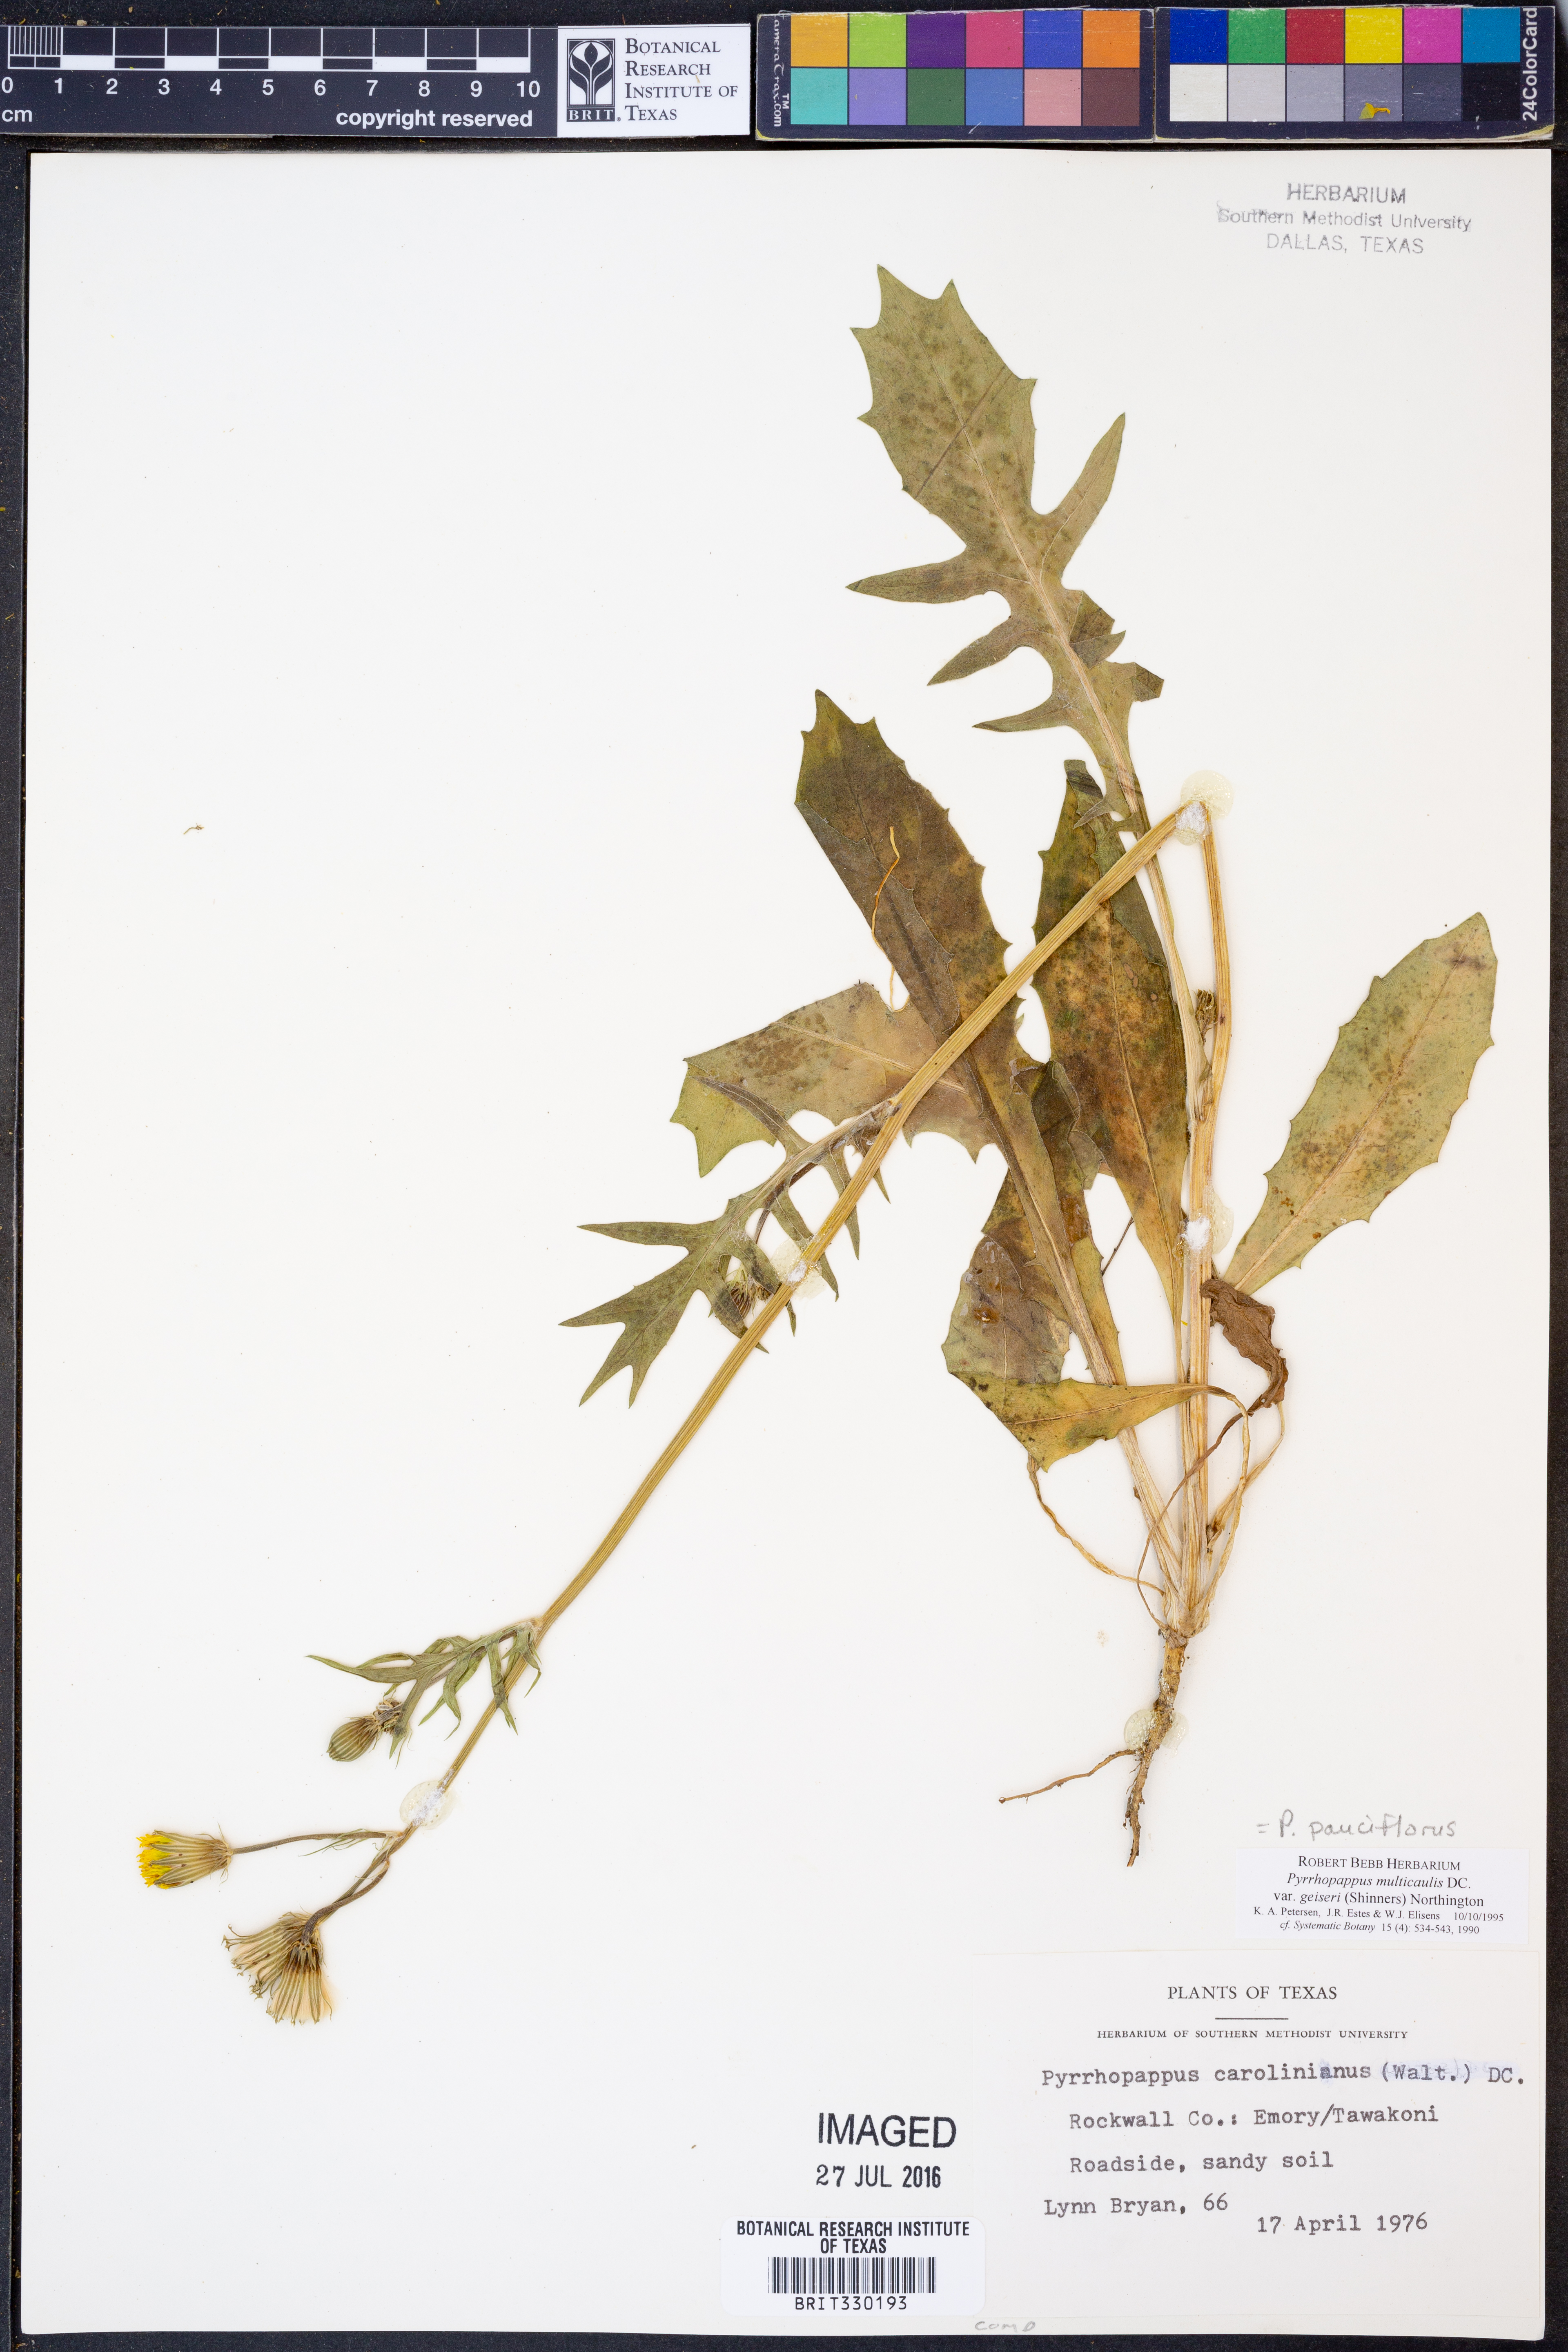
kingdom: Plantae
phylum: Tracheophyta
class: Magnoliopsida
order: Asterales
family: Asteraceae
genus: Pyrrhopappus
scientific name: Pyrrhopappus pauciflorus
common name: Texas false dandelion
